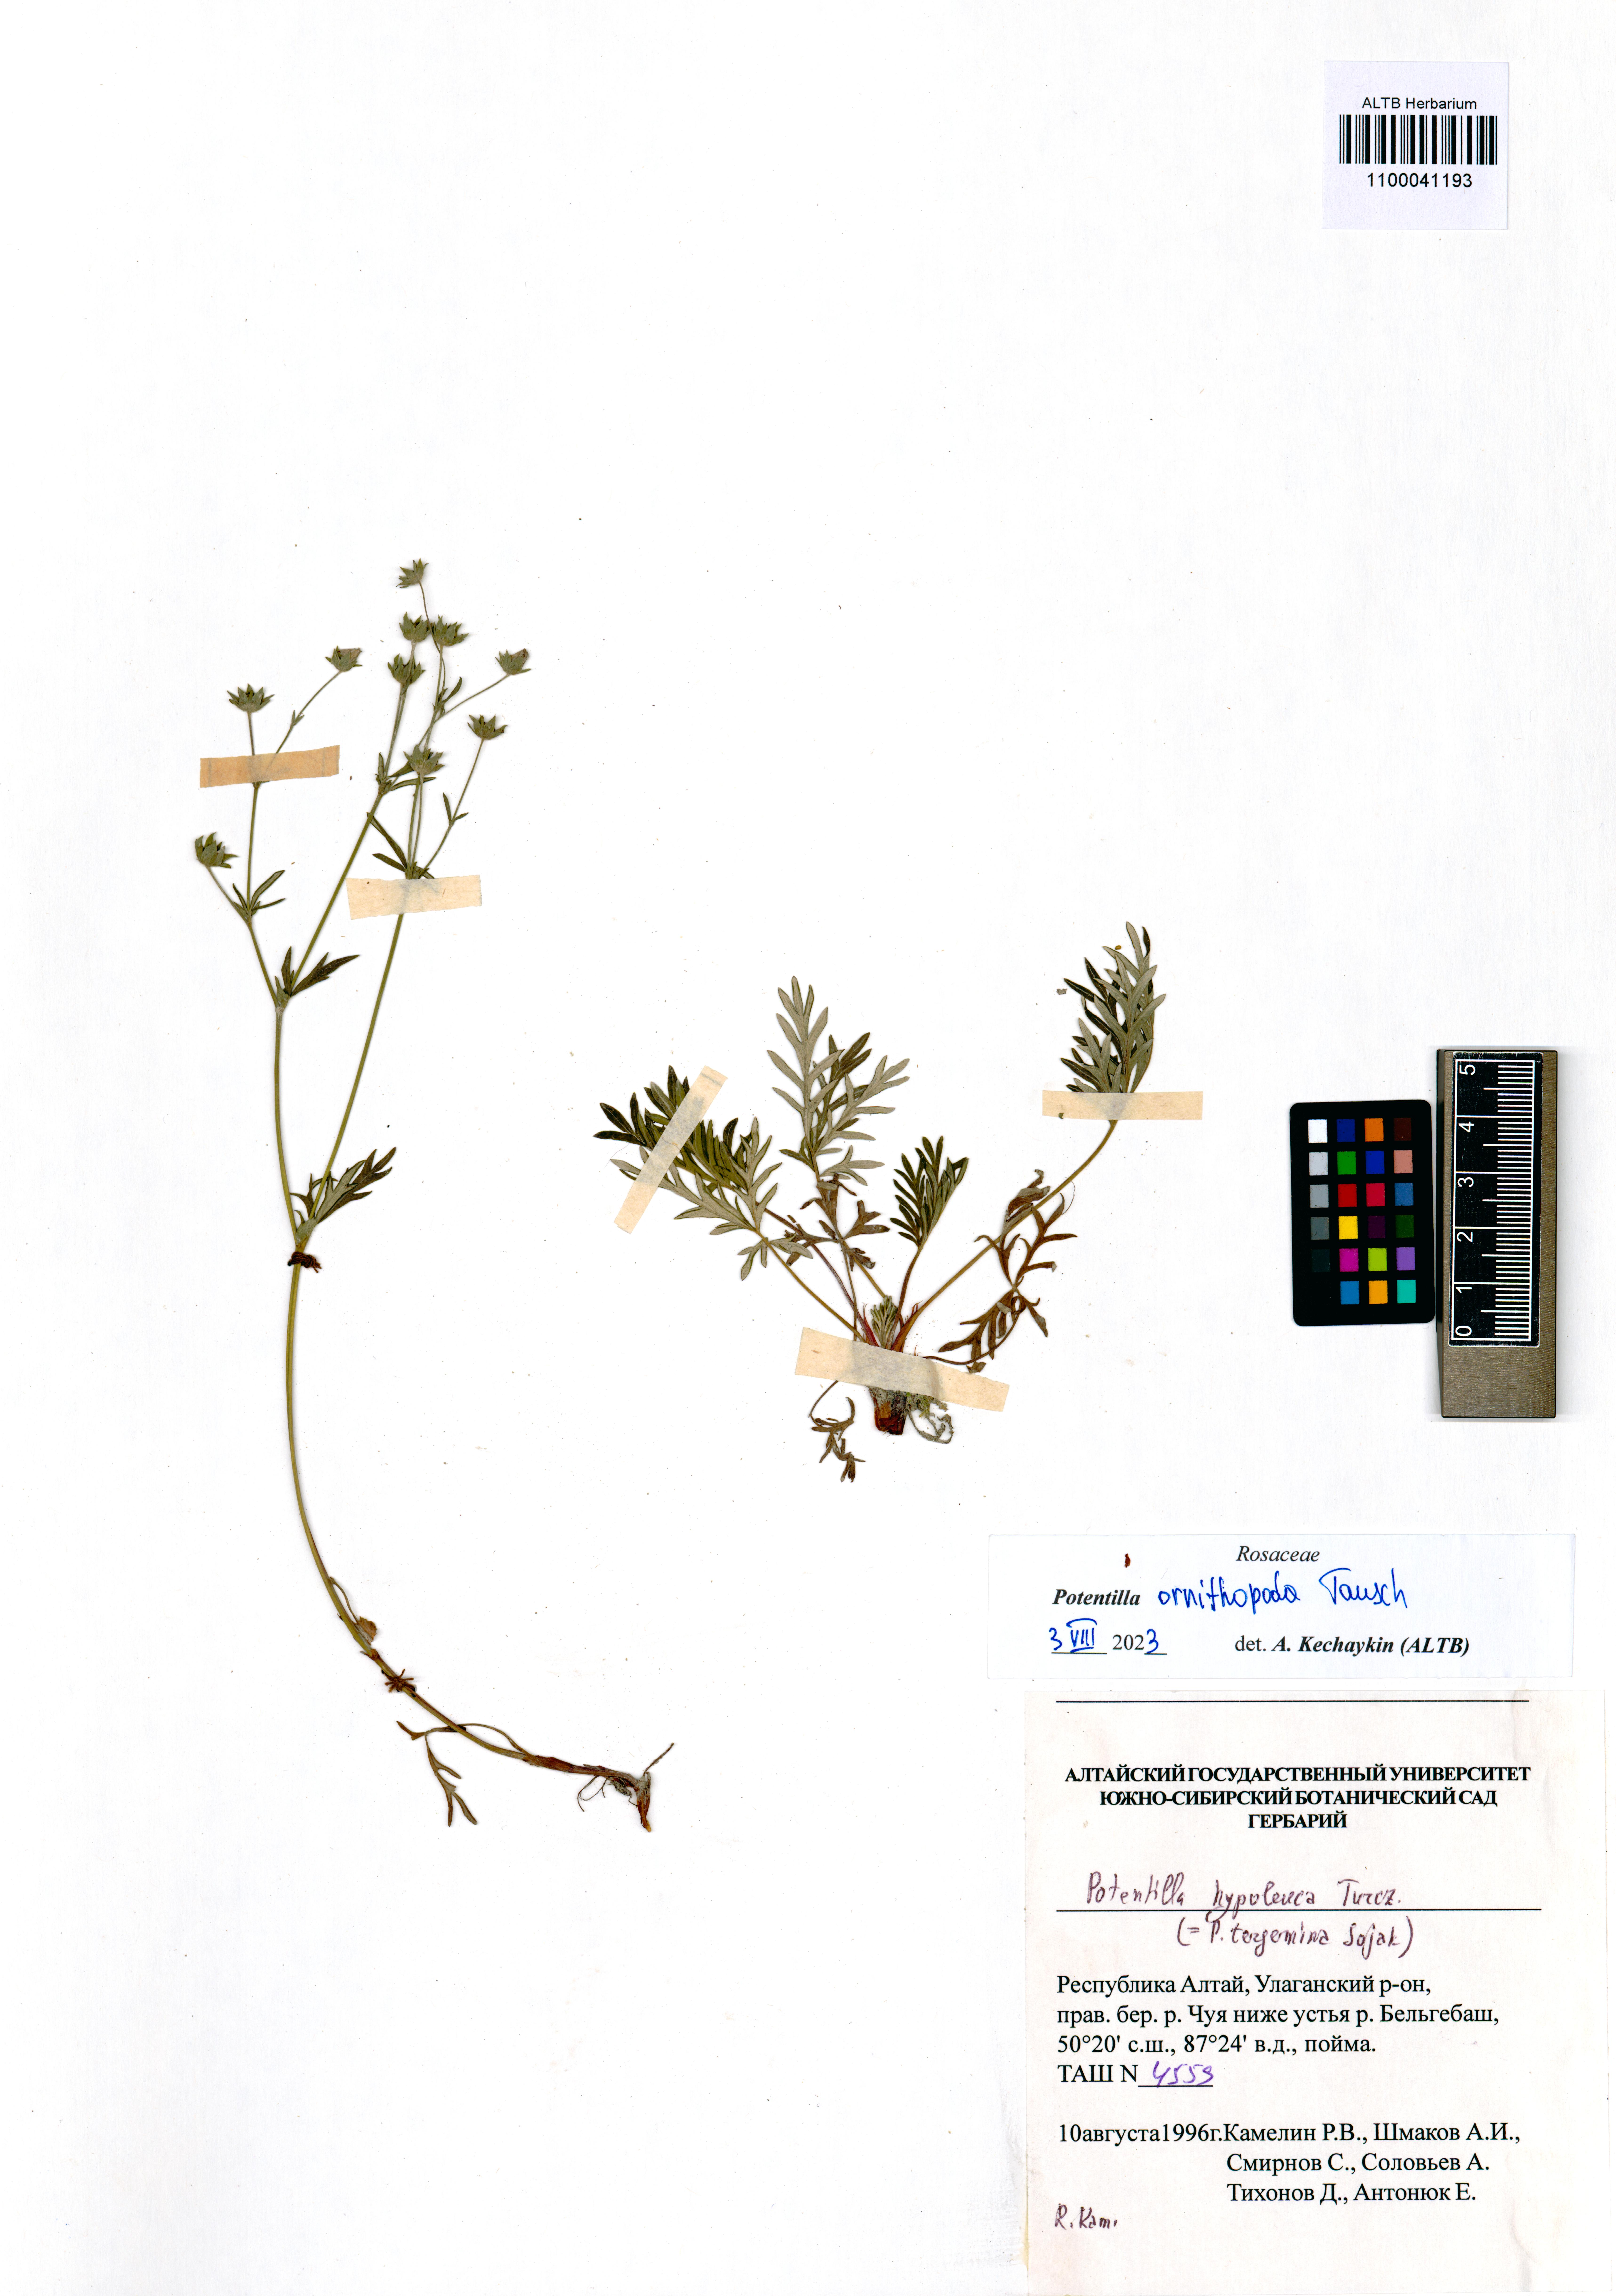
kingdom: Plantae
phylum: Tracheophyta
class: Magnoliopsida
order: Rosales
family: Rosaceae
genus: Potentilla
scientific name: Potentilla ornithopoda
